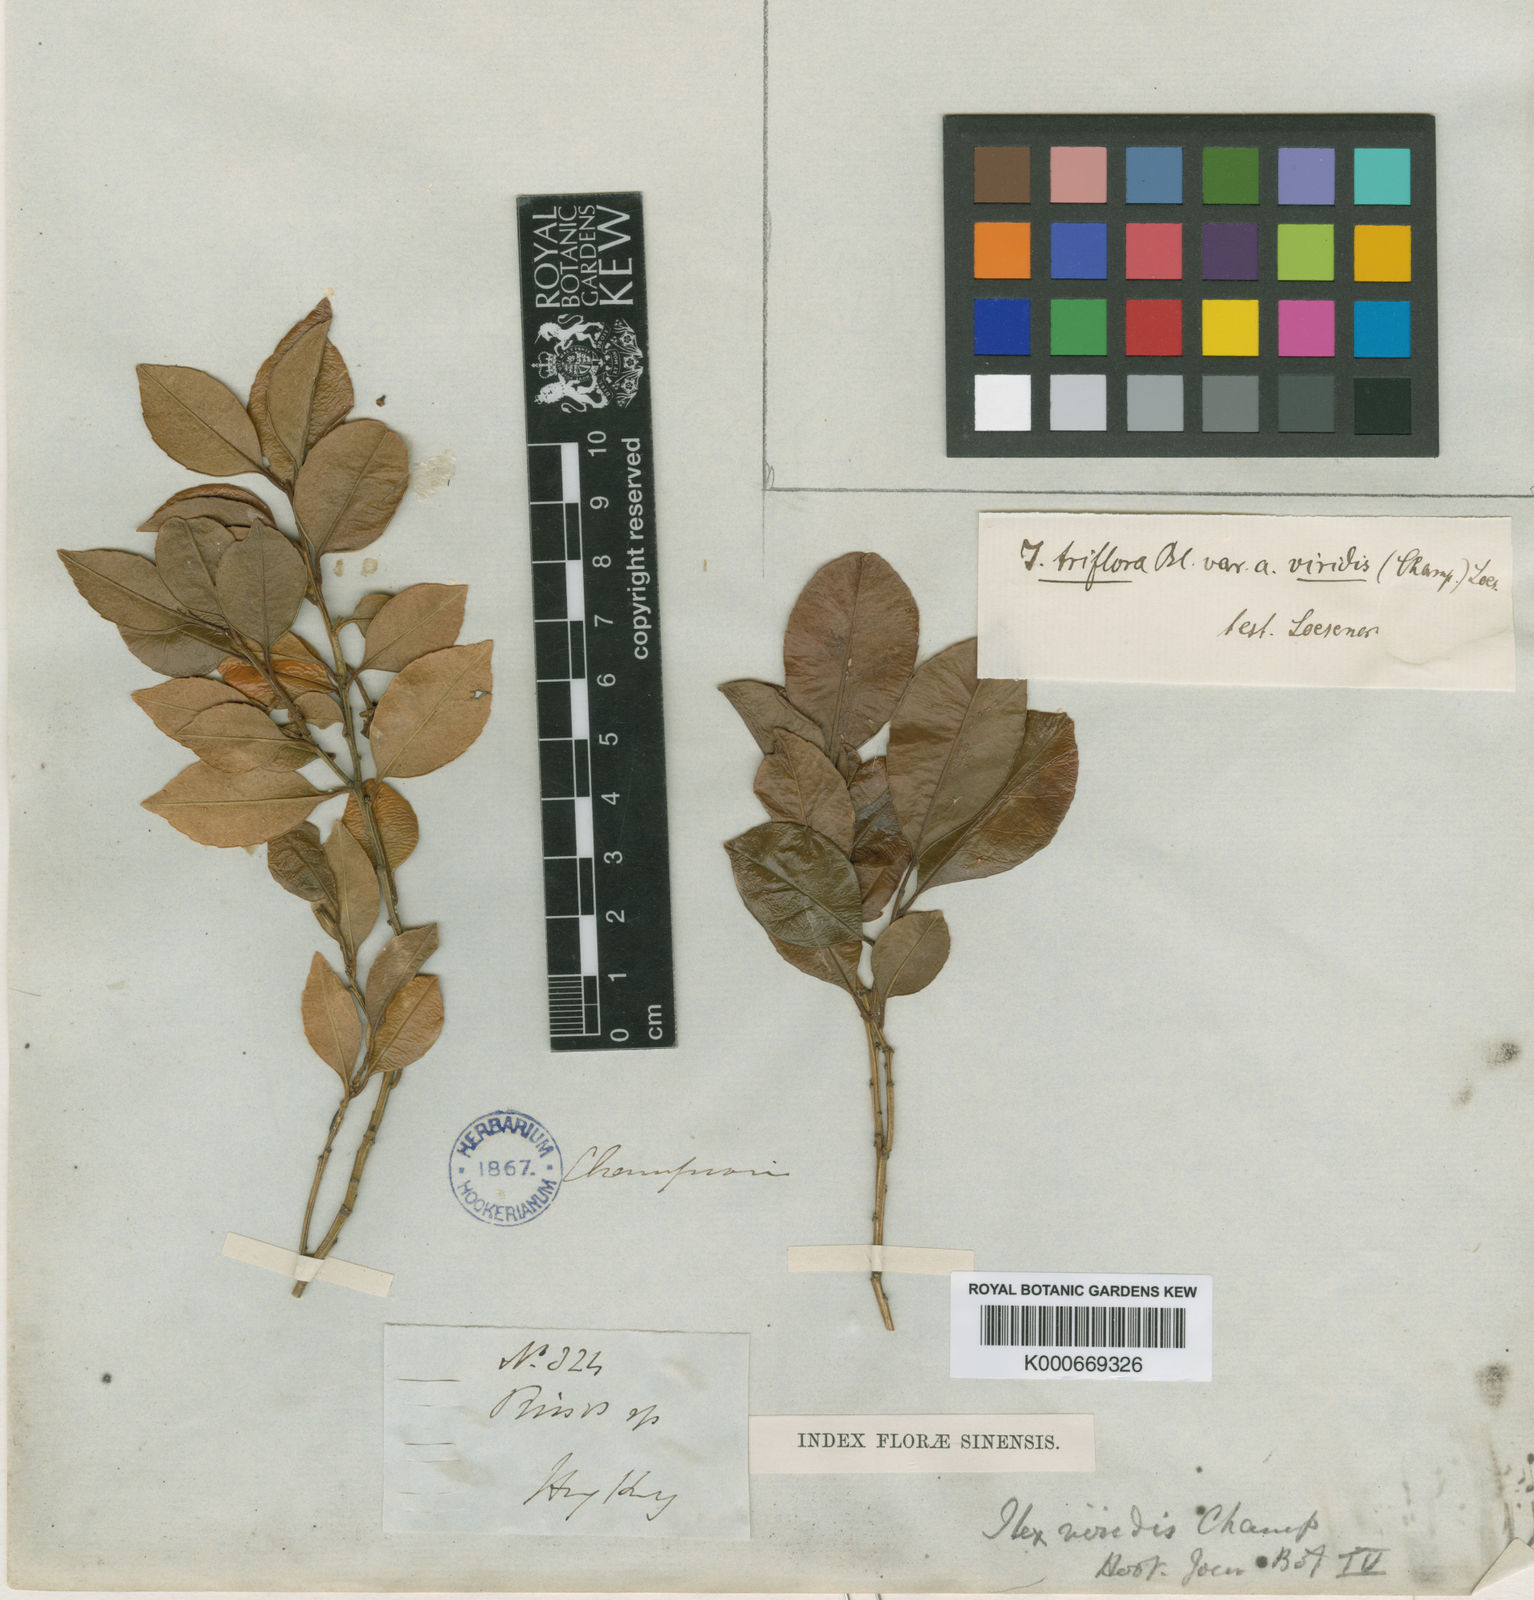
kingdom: Plantae
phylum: Tracheophyta
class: Magnoliopsida
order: Aquifoliales
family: Aquifoliaceae
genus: Ilex
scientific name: Ilex viridis
